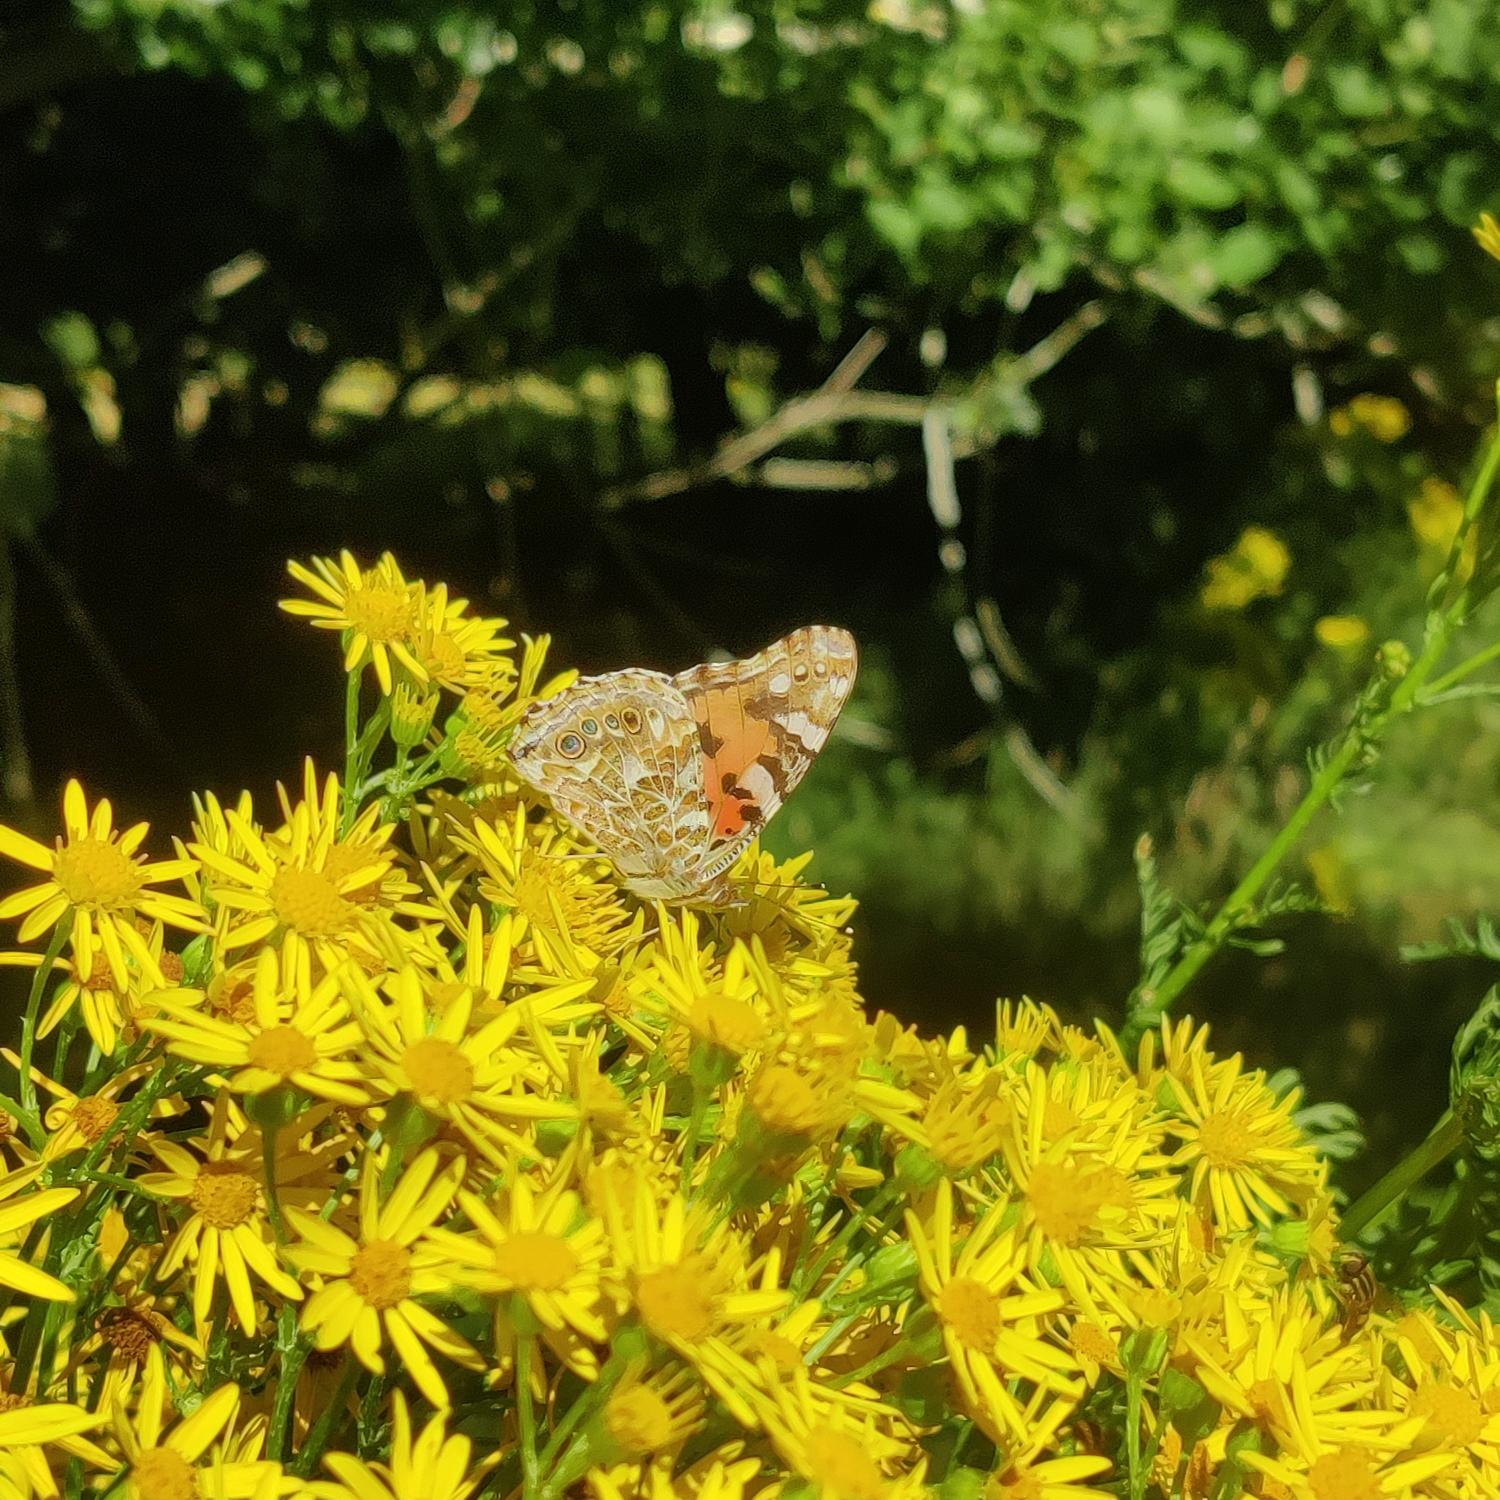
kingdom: Animalia
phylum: Arthropoda
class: Insecta
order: Lepidoptera
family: Nymphalidae
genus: Vanessa
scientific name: Vanessa cardui
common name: Tidselsommerfugl
